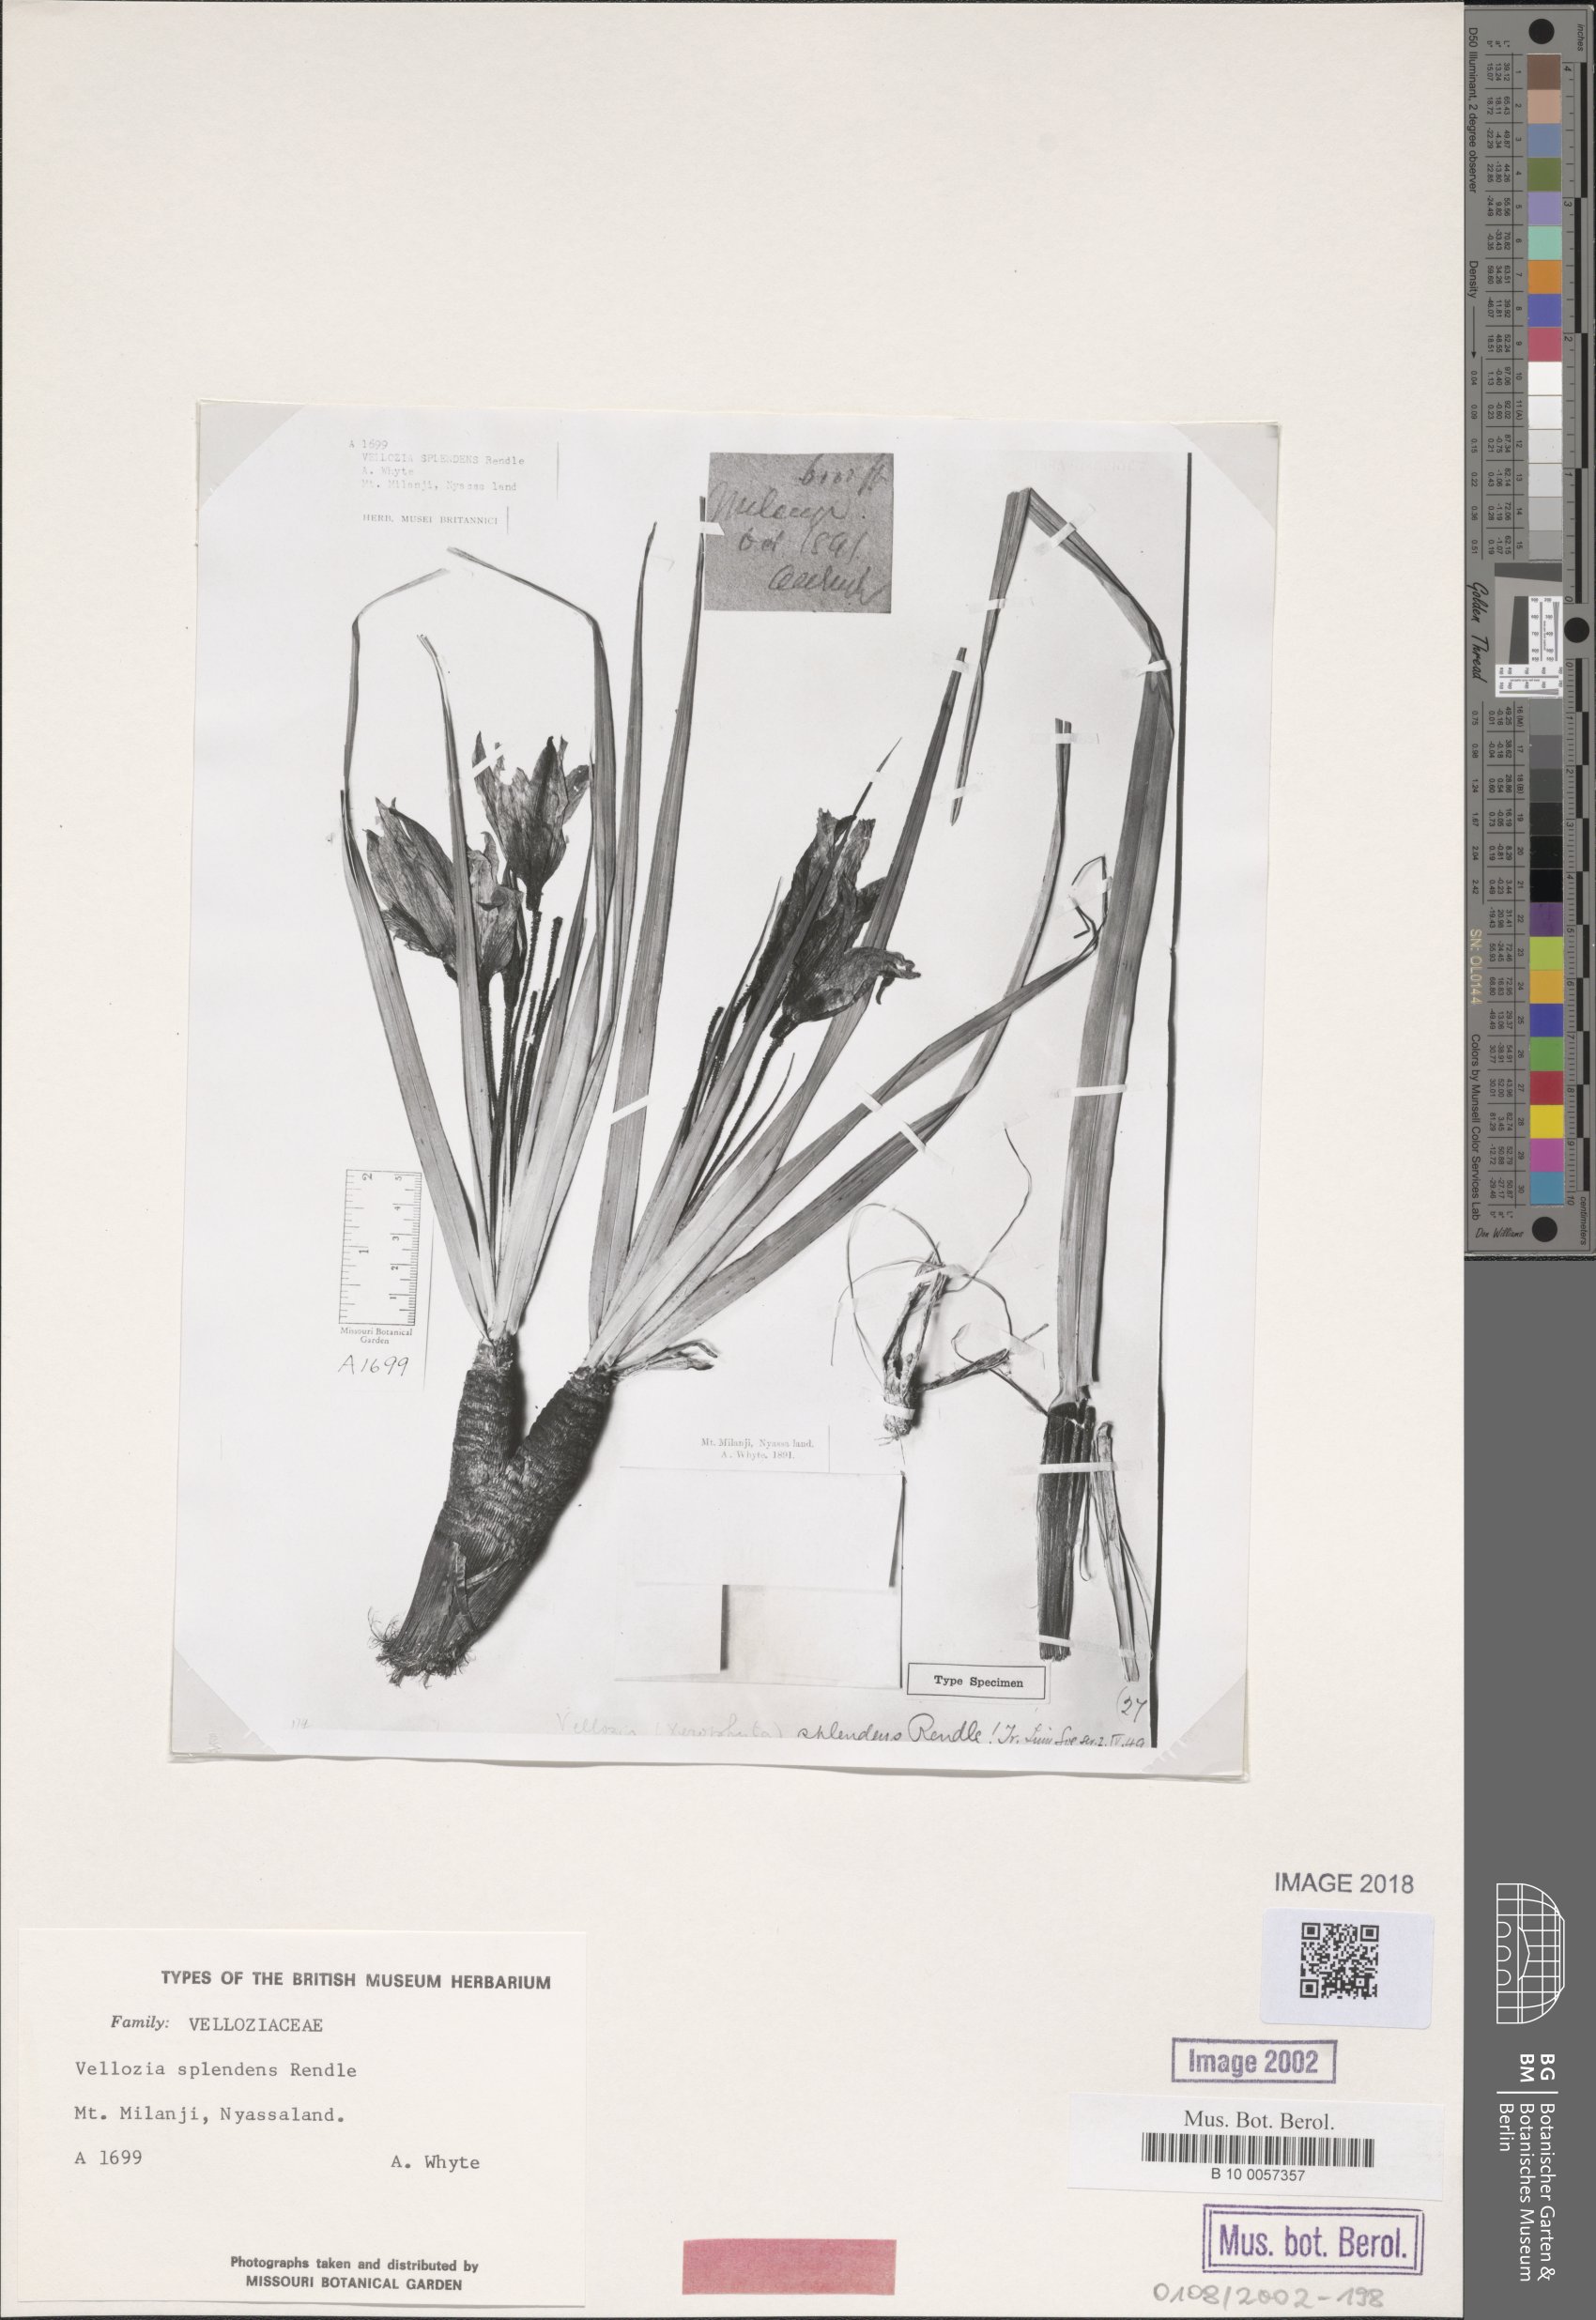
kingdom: Plantae
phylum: Tracheophyta
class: Liliopsida
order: Pandanales
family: Velloziaceae
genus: Xerophyta
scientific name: Xerophyta splendens
